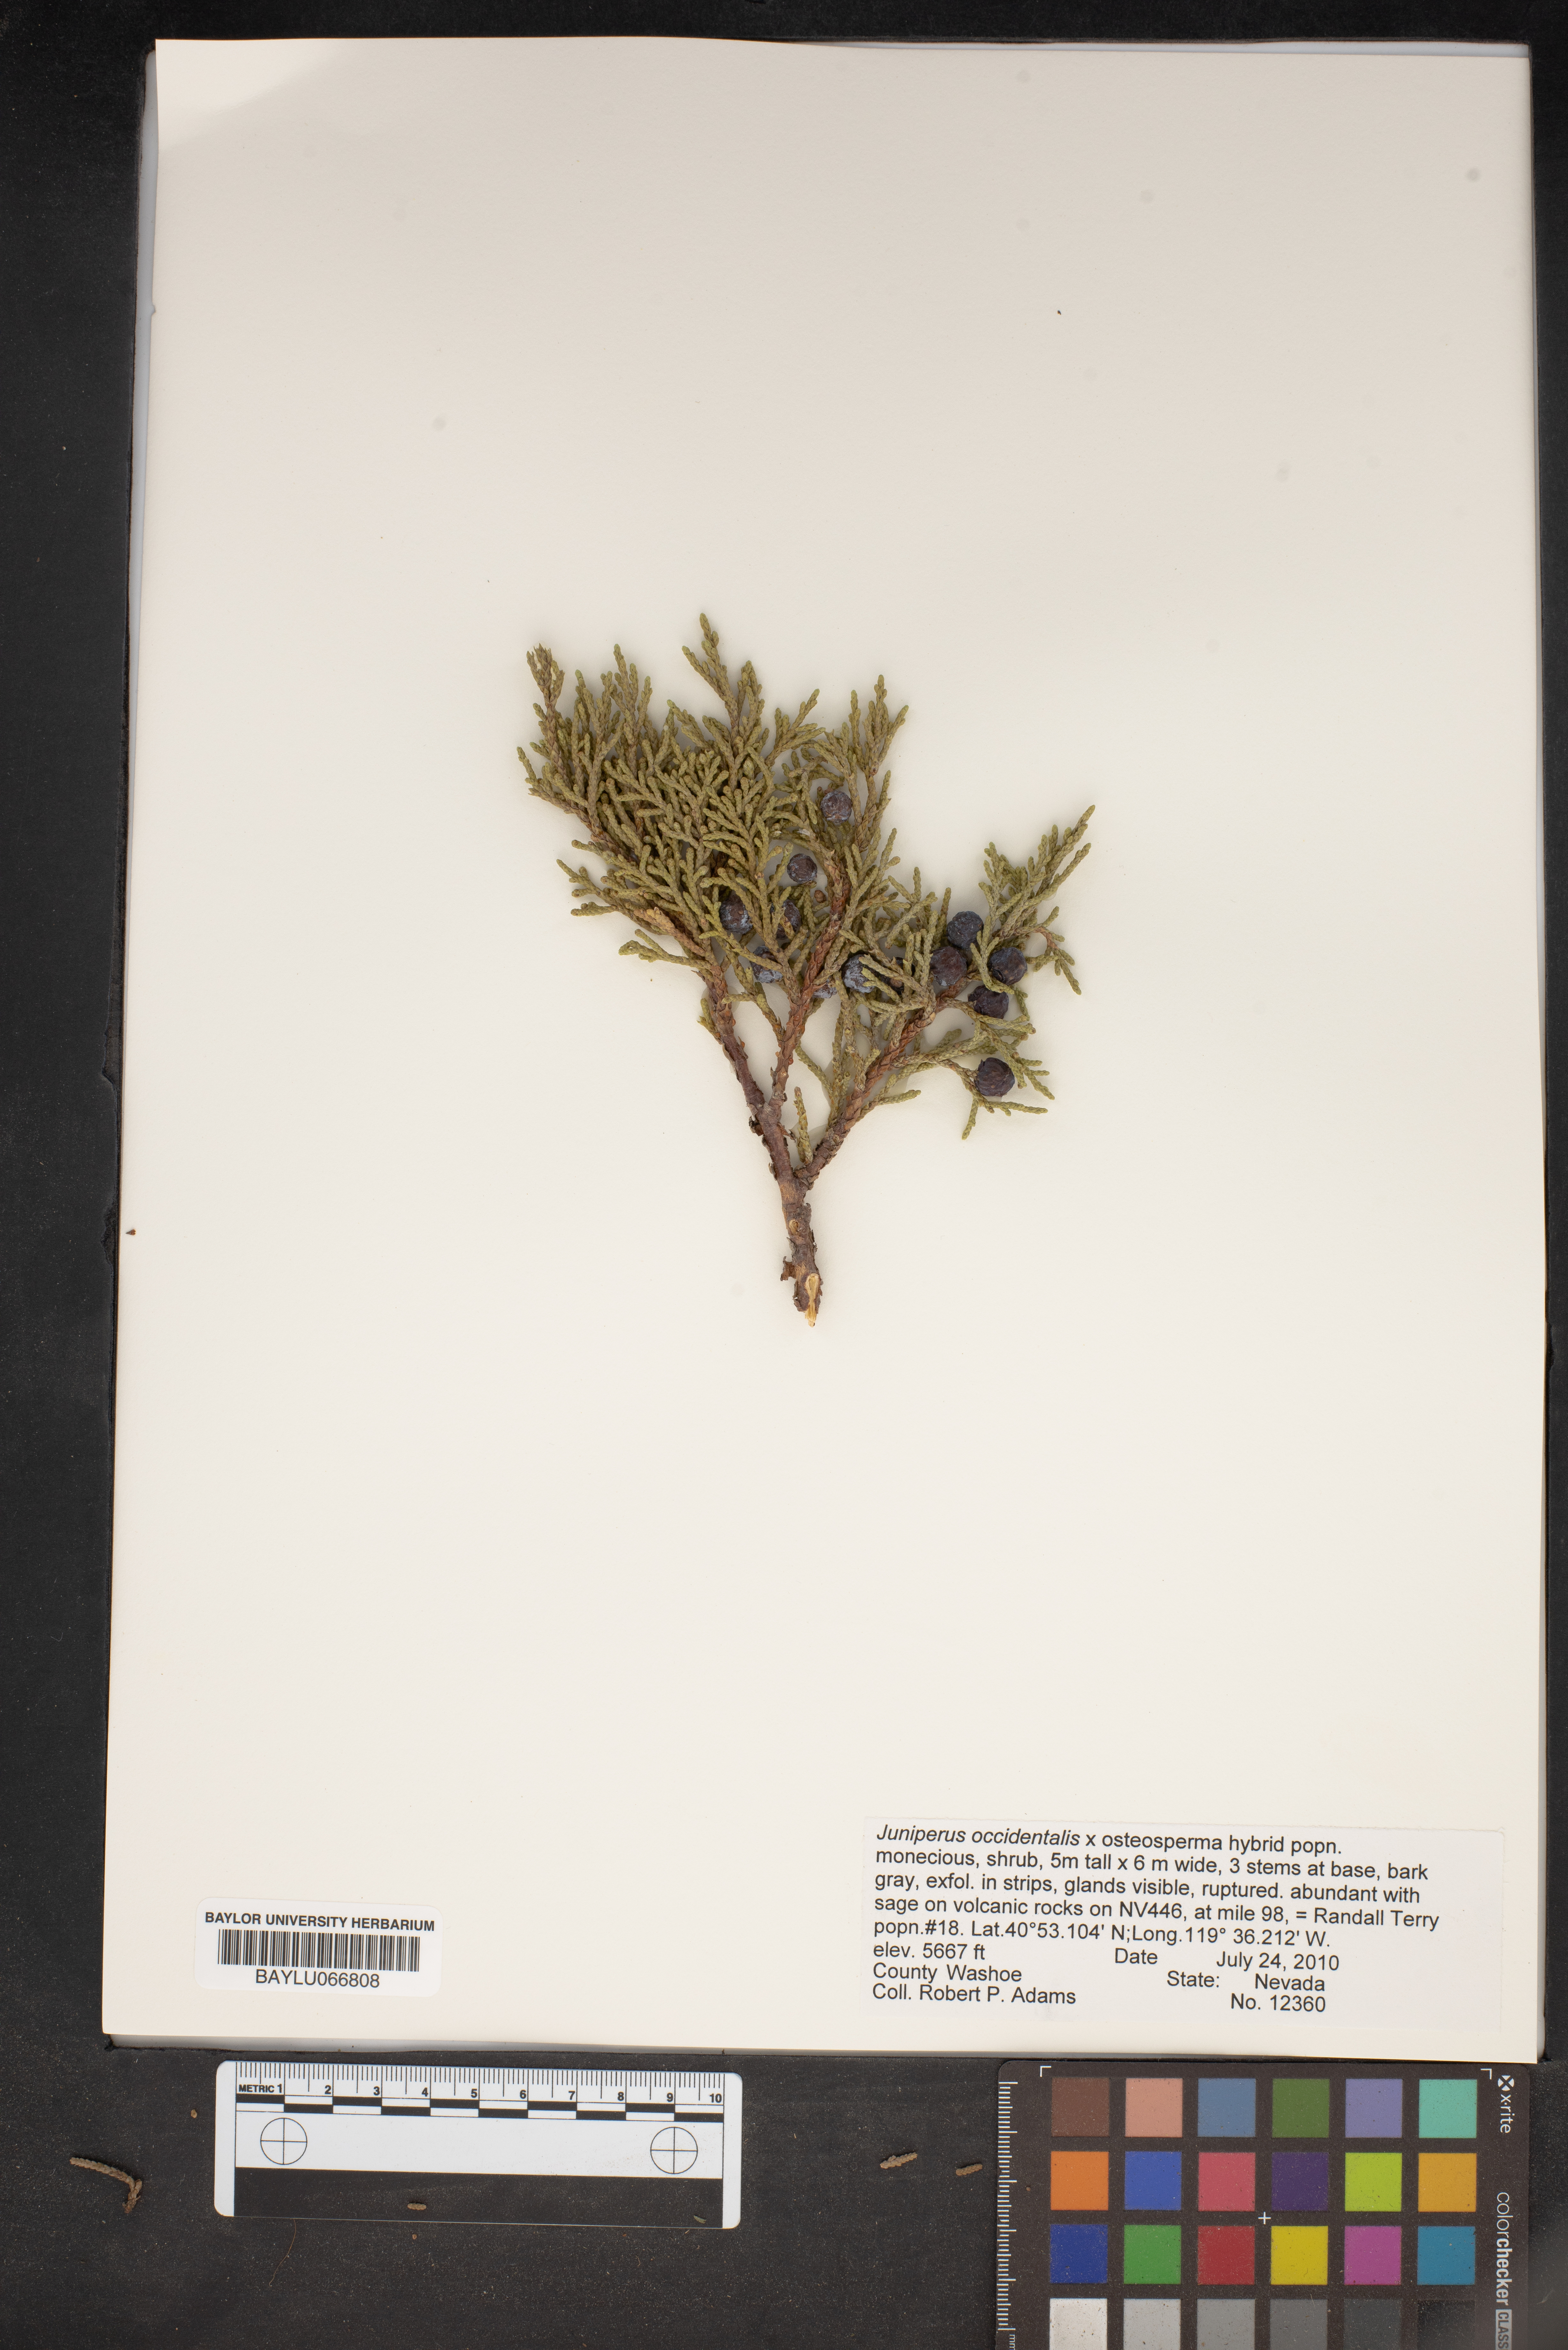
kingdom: Plantae
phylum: Tracheophyta
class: Pinopsida
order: Pinales
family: Cupressaceae
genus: Juniperus
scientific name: Juniperus occidentalis
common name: Western juniper
